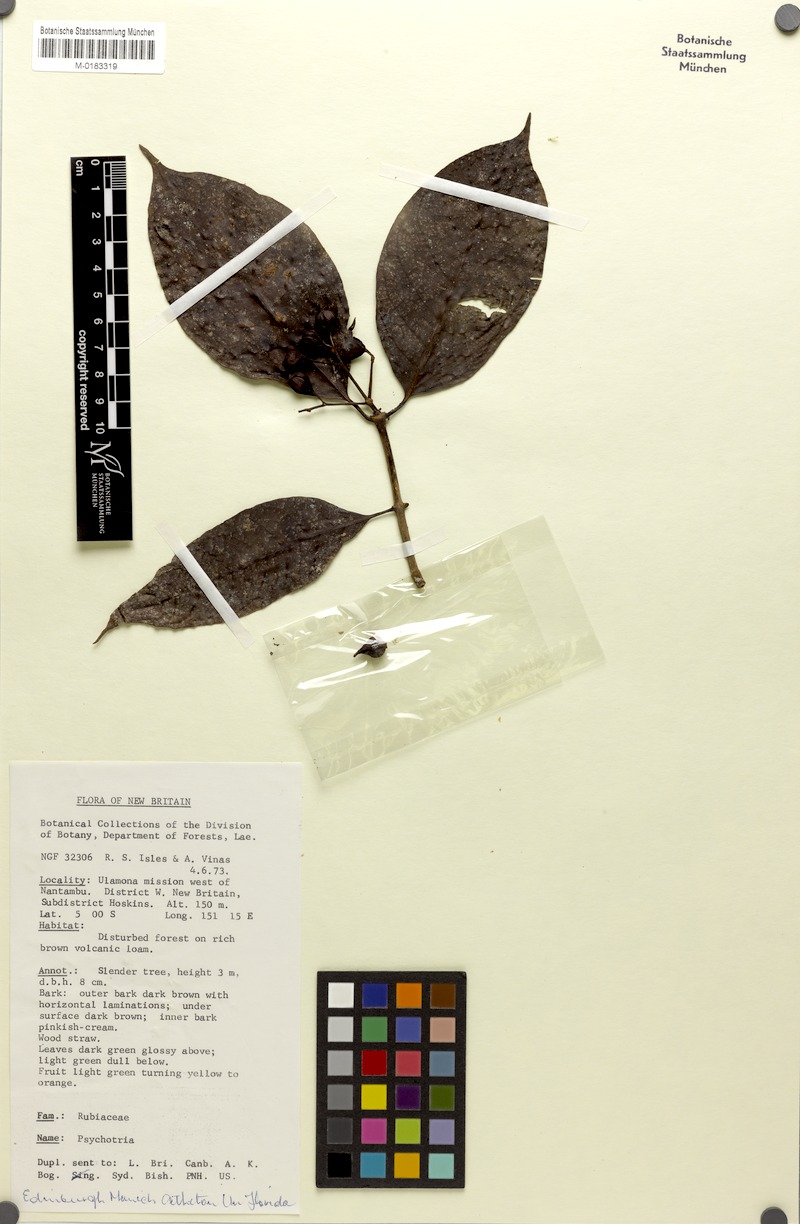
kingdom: Plantae
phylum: Tracheophyta
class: Magnoliopsida
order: Gentianales
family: Rubiaceae
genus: Psychotria
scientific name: Psychotria talasensis
